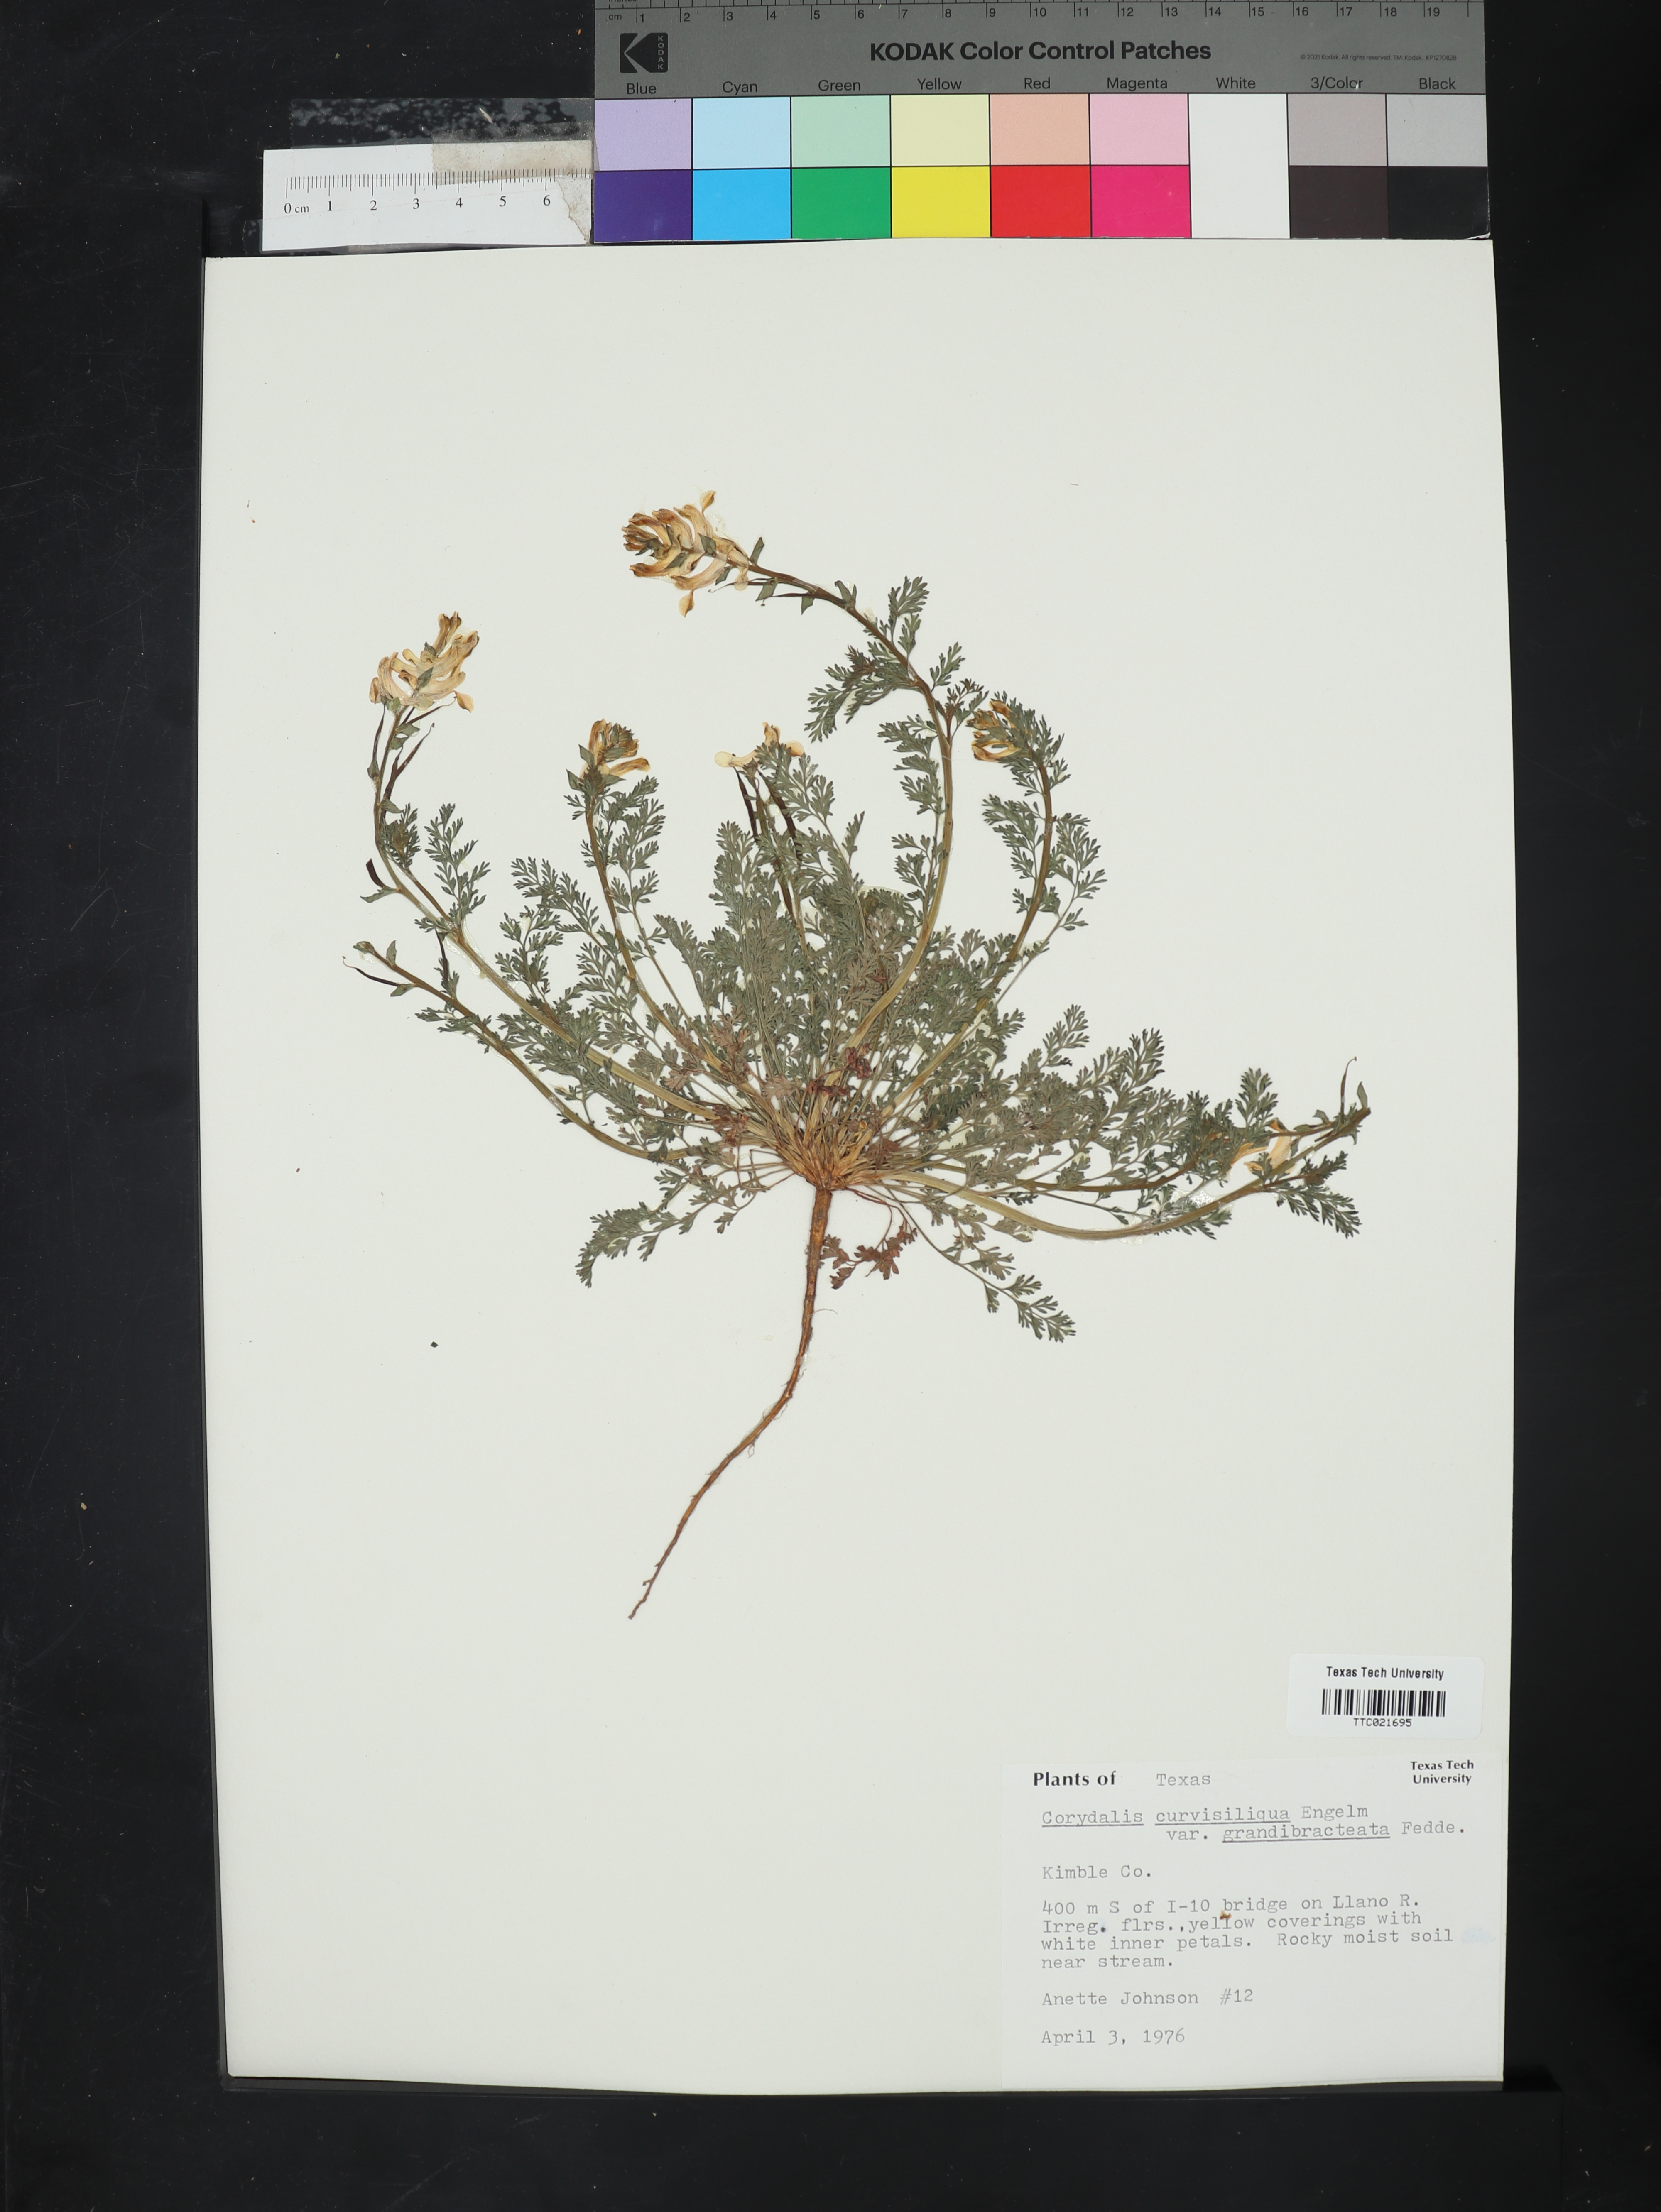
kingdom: Plantae
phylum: Tracheophyta
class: Magnoliopsida
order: Ranunculales
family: Papaveraceae
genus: Corydalis
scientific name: Corydalis curvisiliqua
